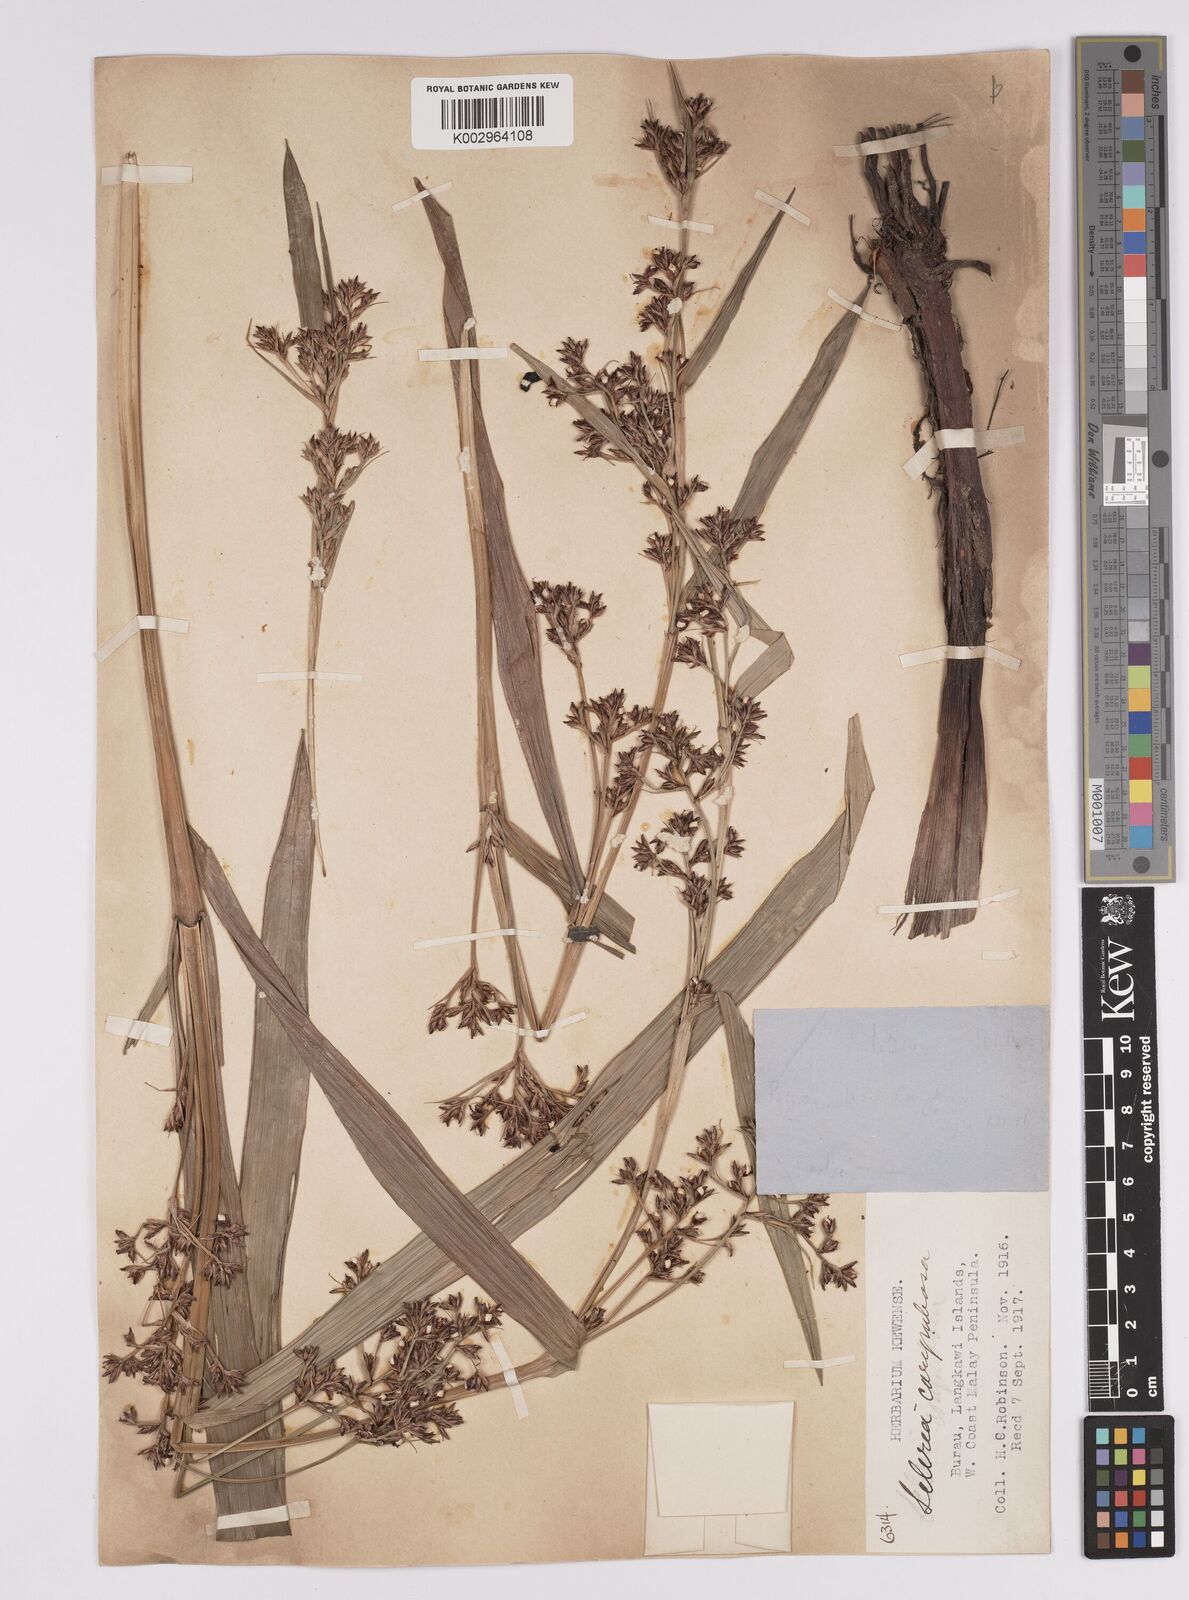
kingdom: Plantae
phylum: Tracheophyta
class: Liliopsida
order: Poales
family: Cyperaceae
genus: Scleria
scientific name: Scleria corymbosa
